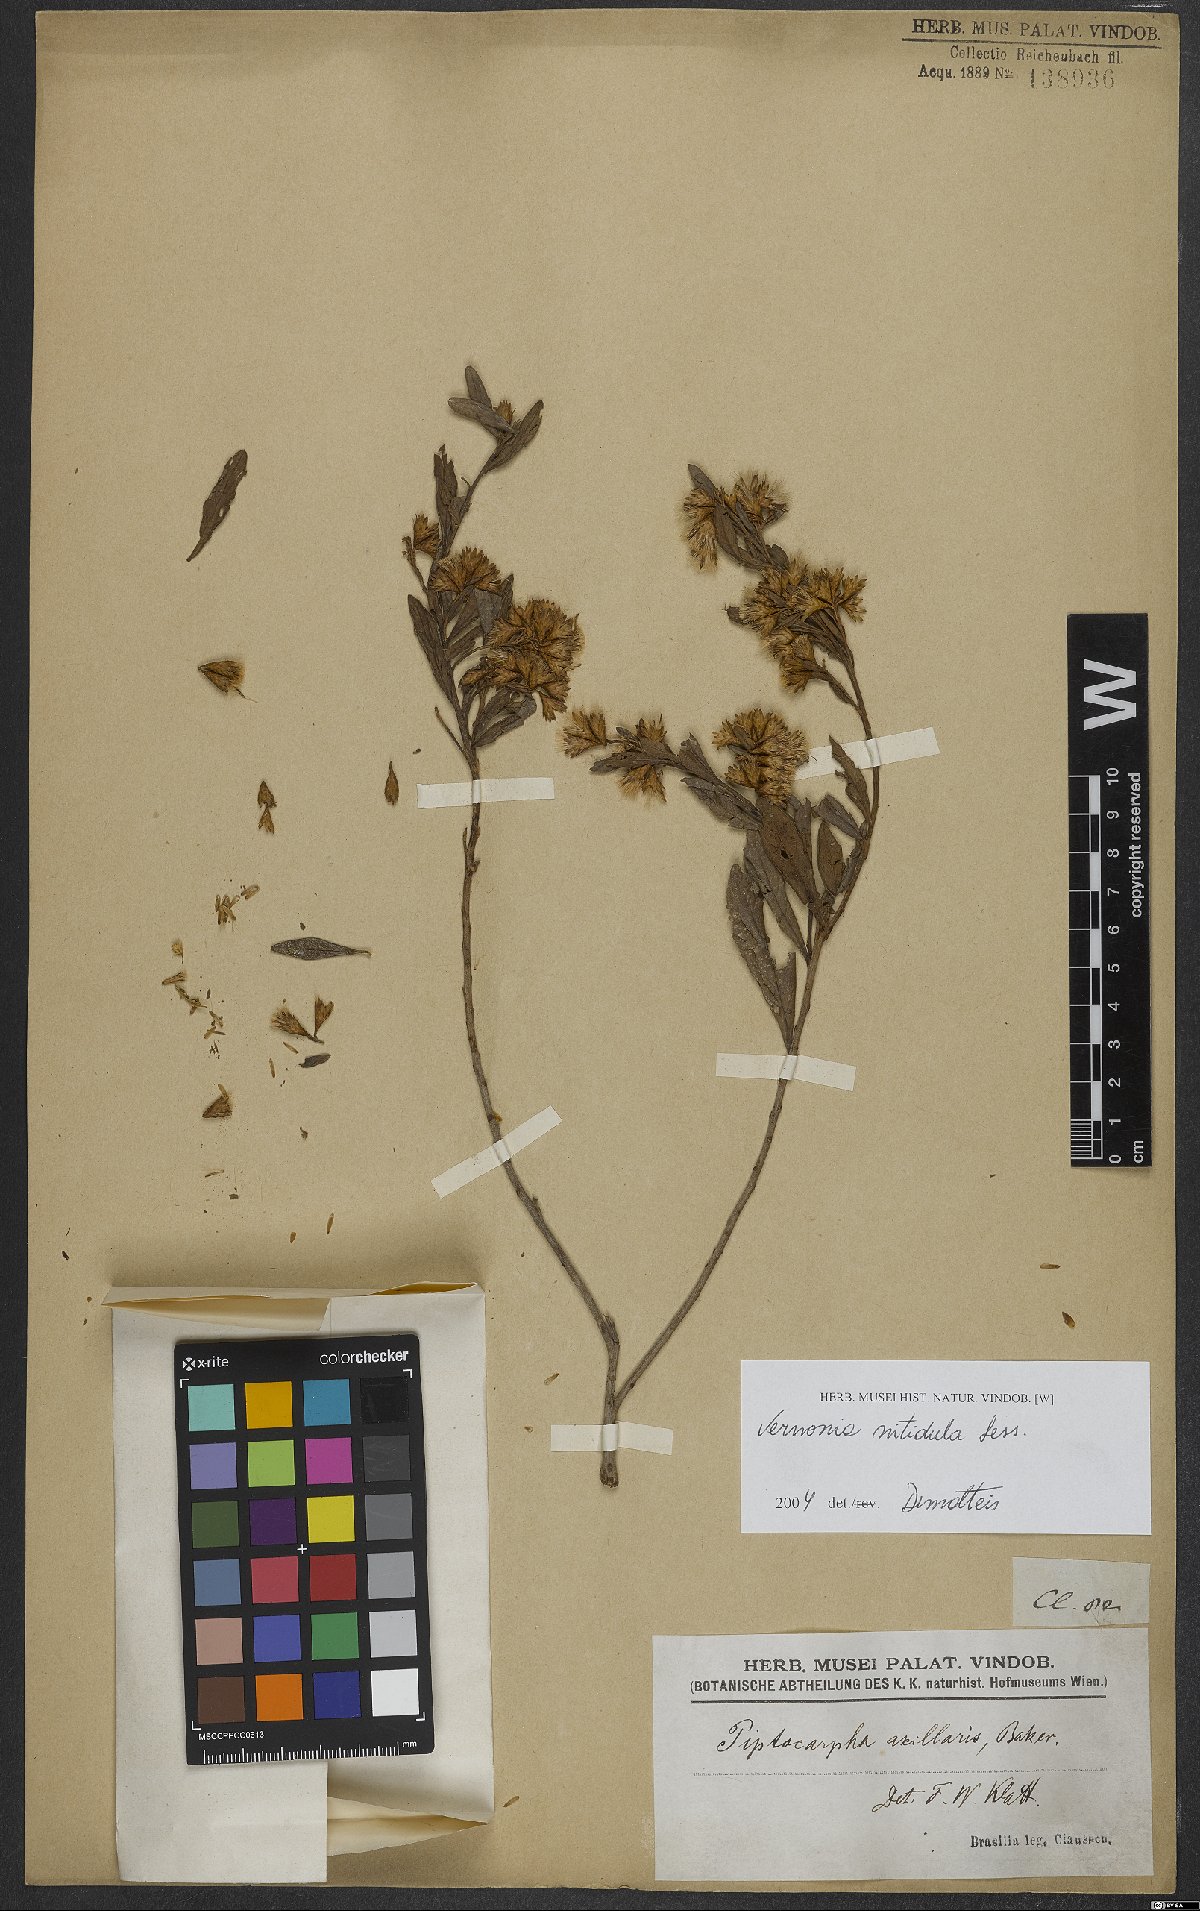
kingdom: Plantae
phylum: Tracheophyta
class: Magnoliopsida
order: Asterales
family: Asteraceae
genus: Vernonanthura
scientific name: Vernonanthura montevidensis
